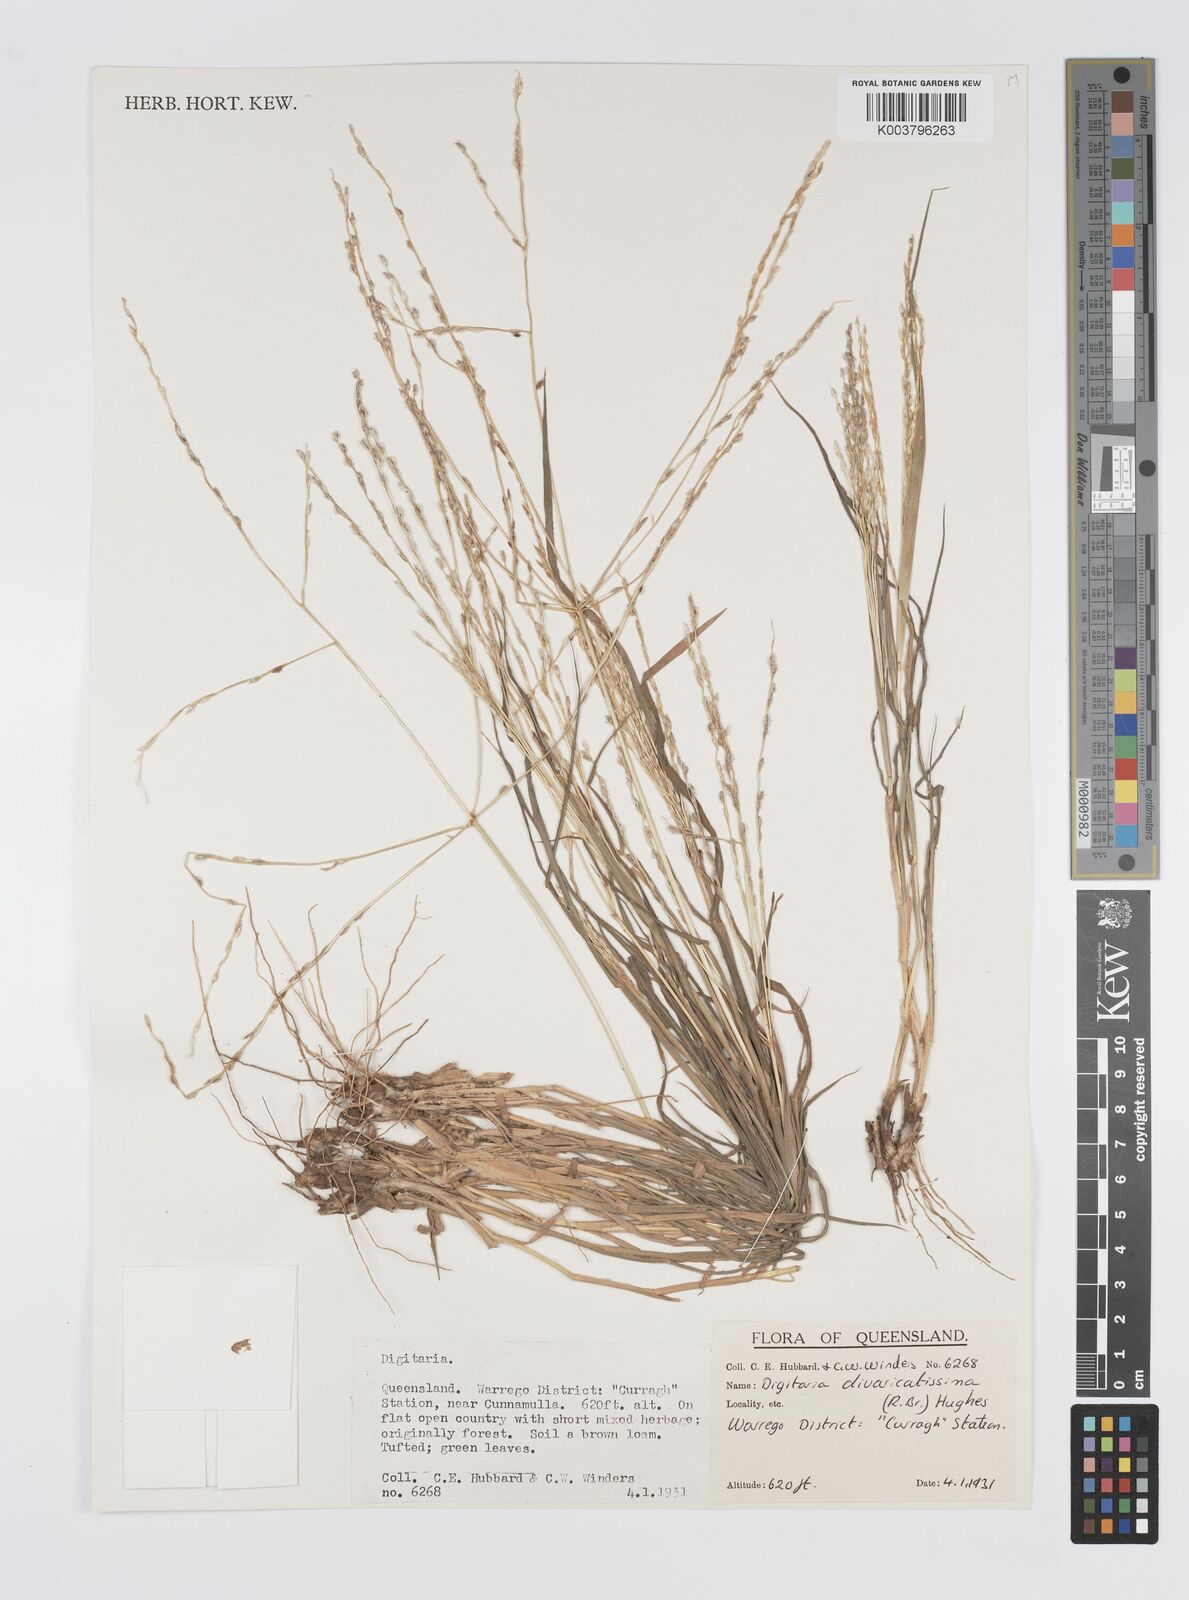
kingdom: Plantae
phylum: Tracheophyta
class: Liliopsida
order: Poales
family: Poaceae
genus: Digitaria
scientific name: Digitaria divaricatissima
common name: Crabgrass
